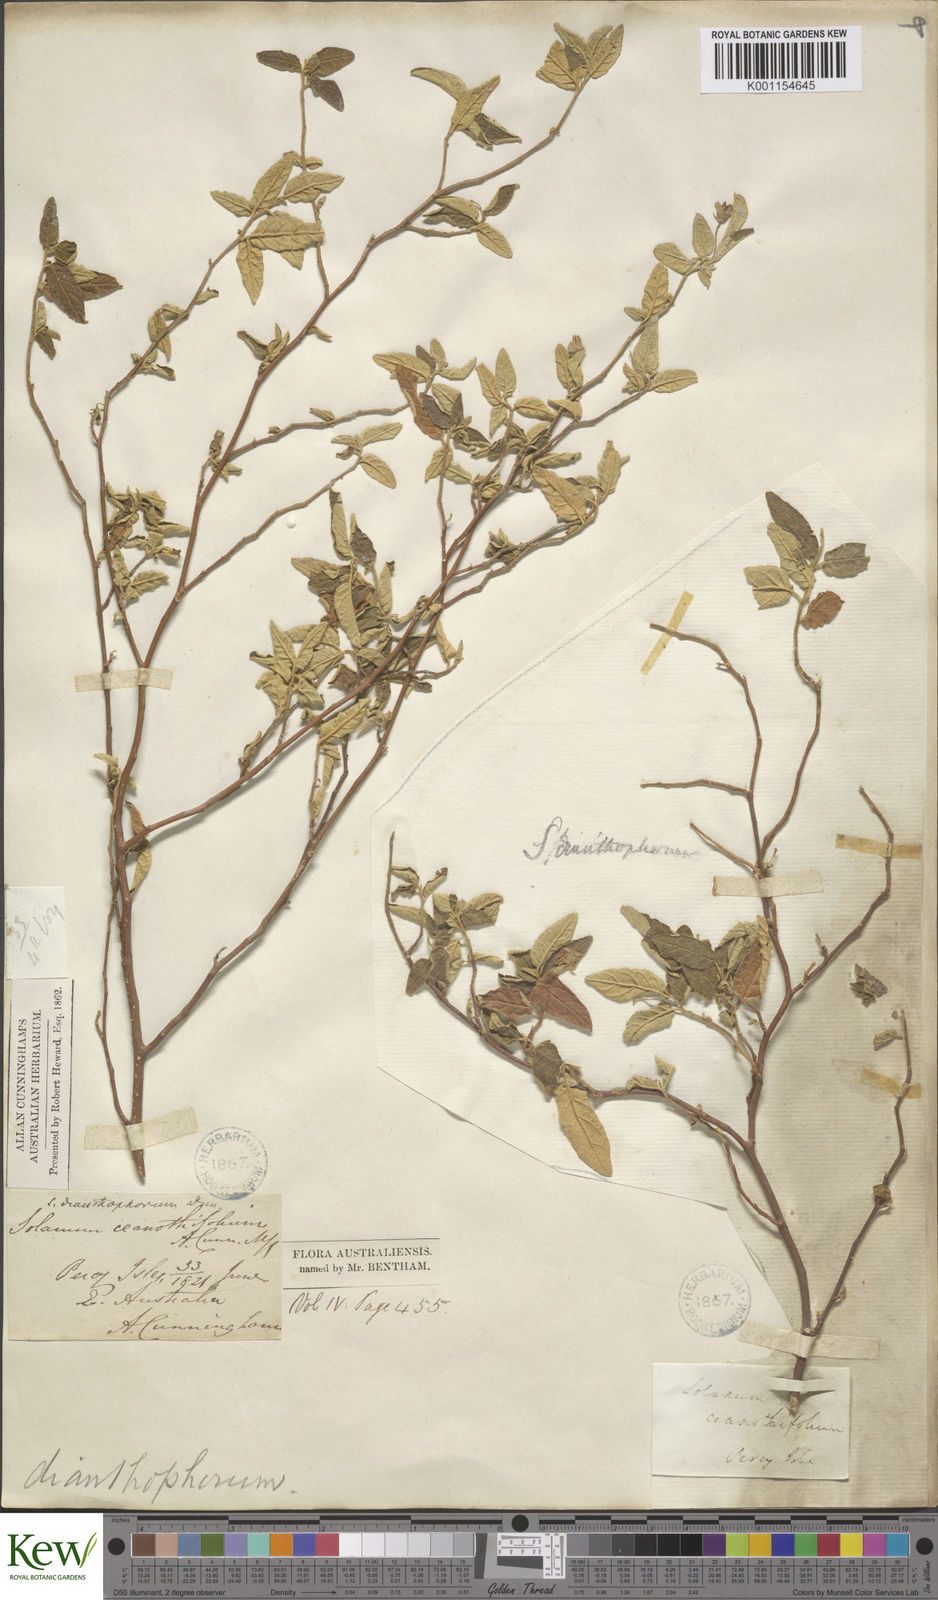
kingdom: Plantae
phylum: Tracheophyta
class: Magnoliopsida
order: Solanales
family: Solanaceae
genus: Solanum
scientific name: Solanum dianthophorum
